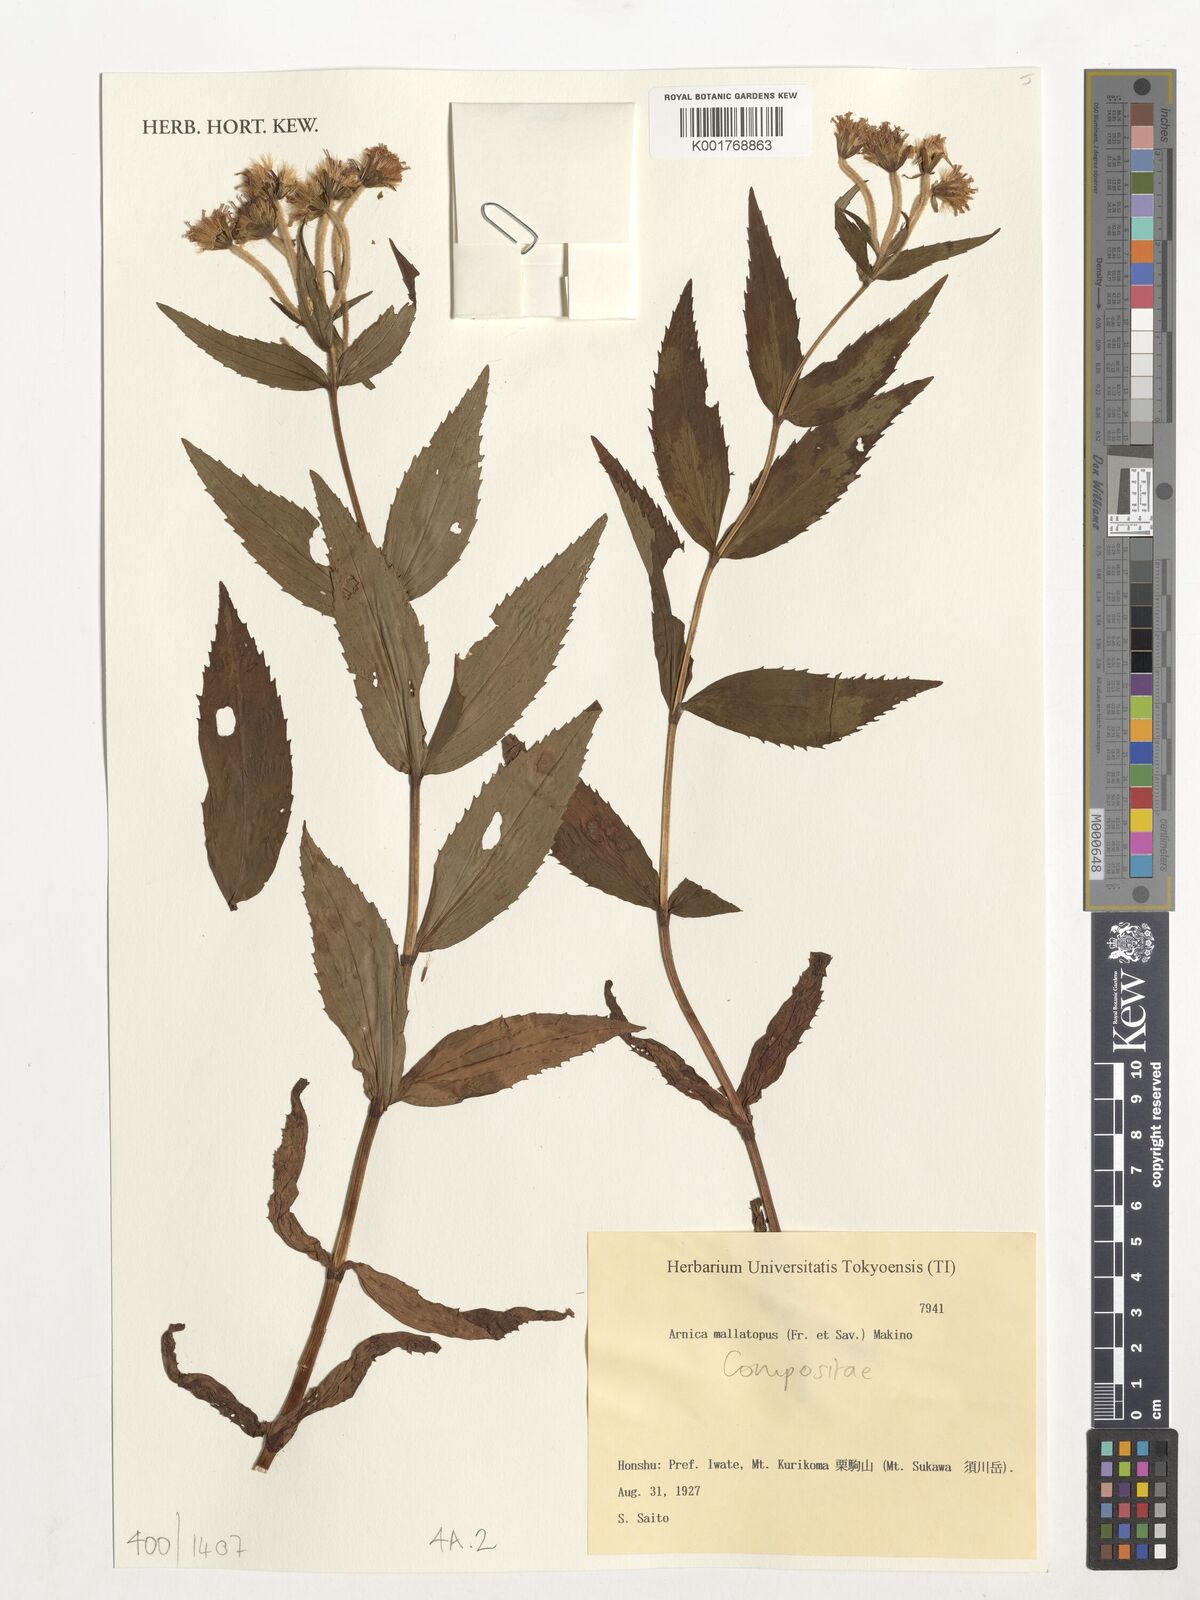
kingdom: Plantae
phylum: Tracheophyta
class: Magnoliopsida
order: Asterales
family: Asteraceae
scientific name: Asteraceae
